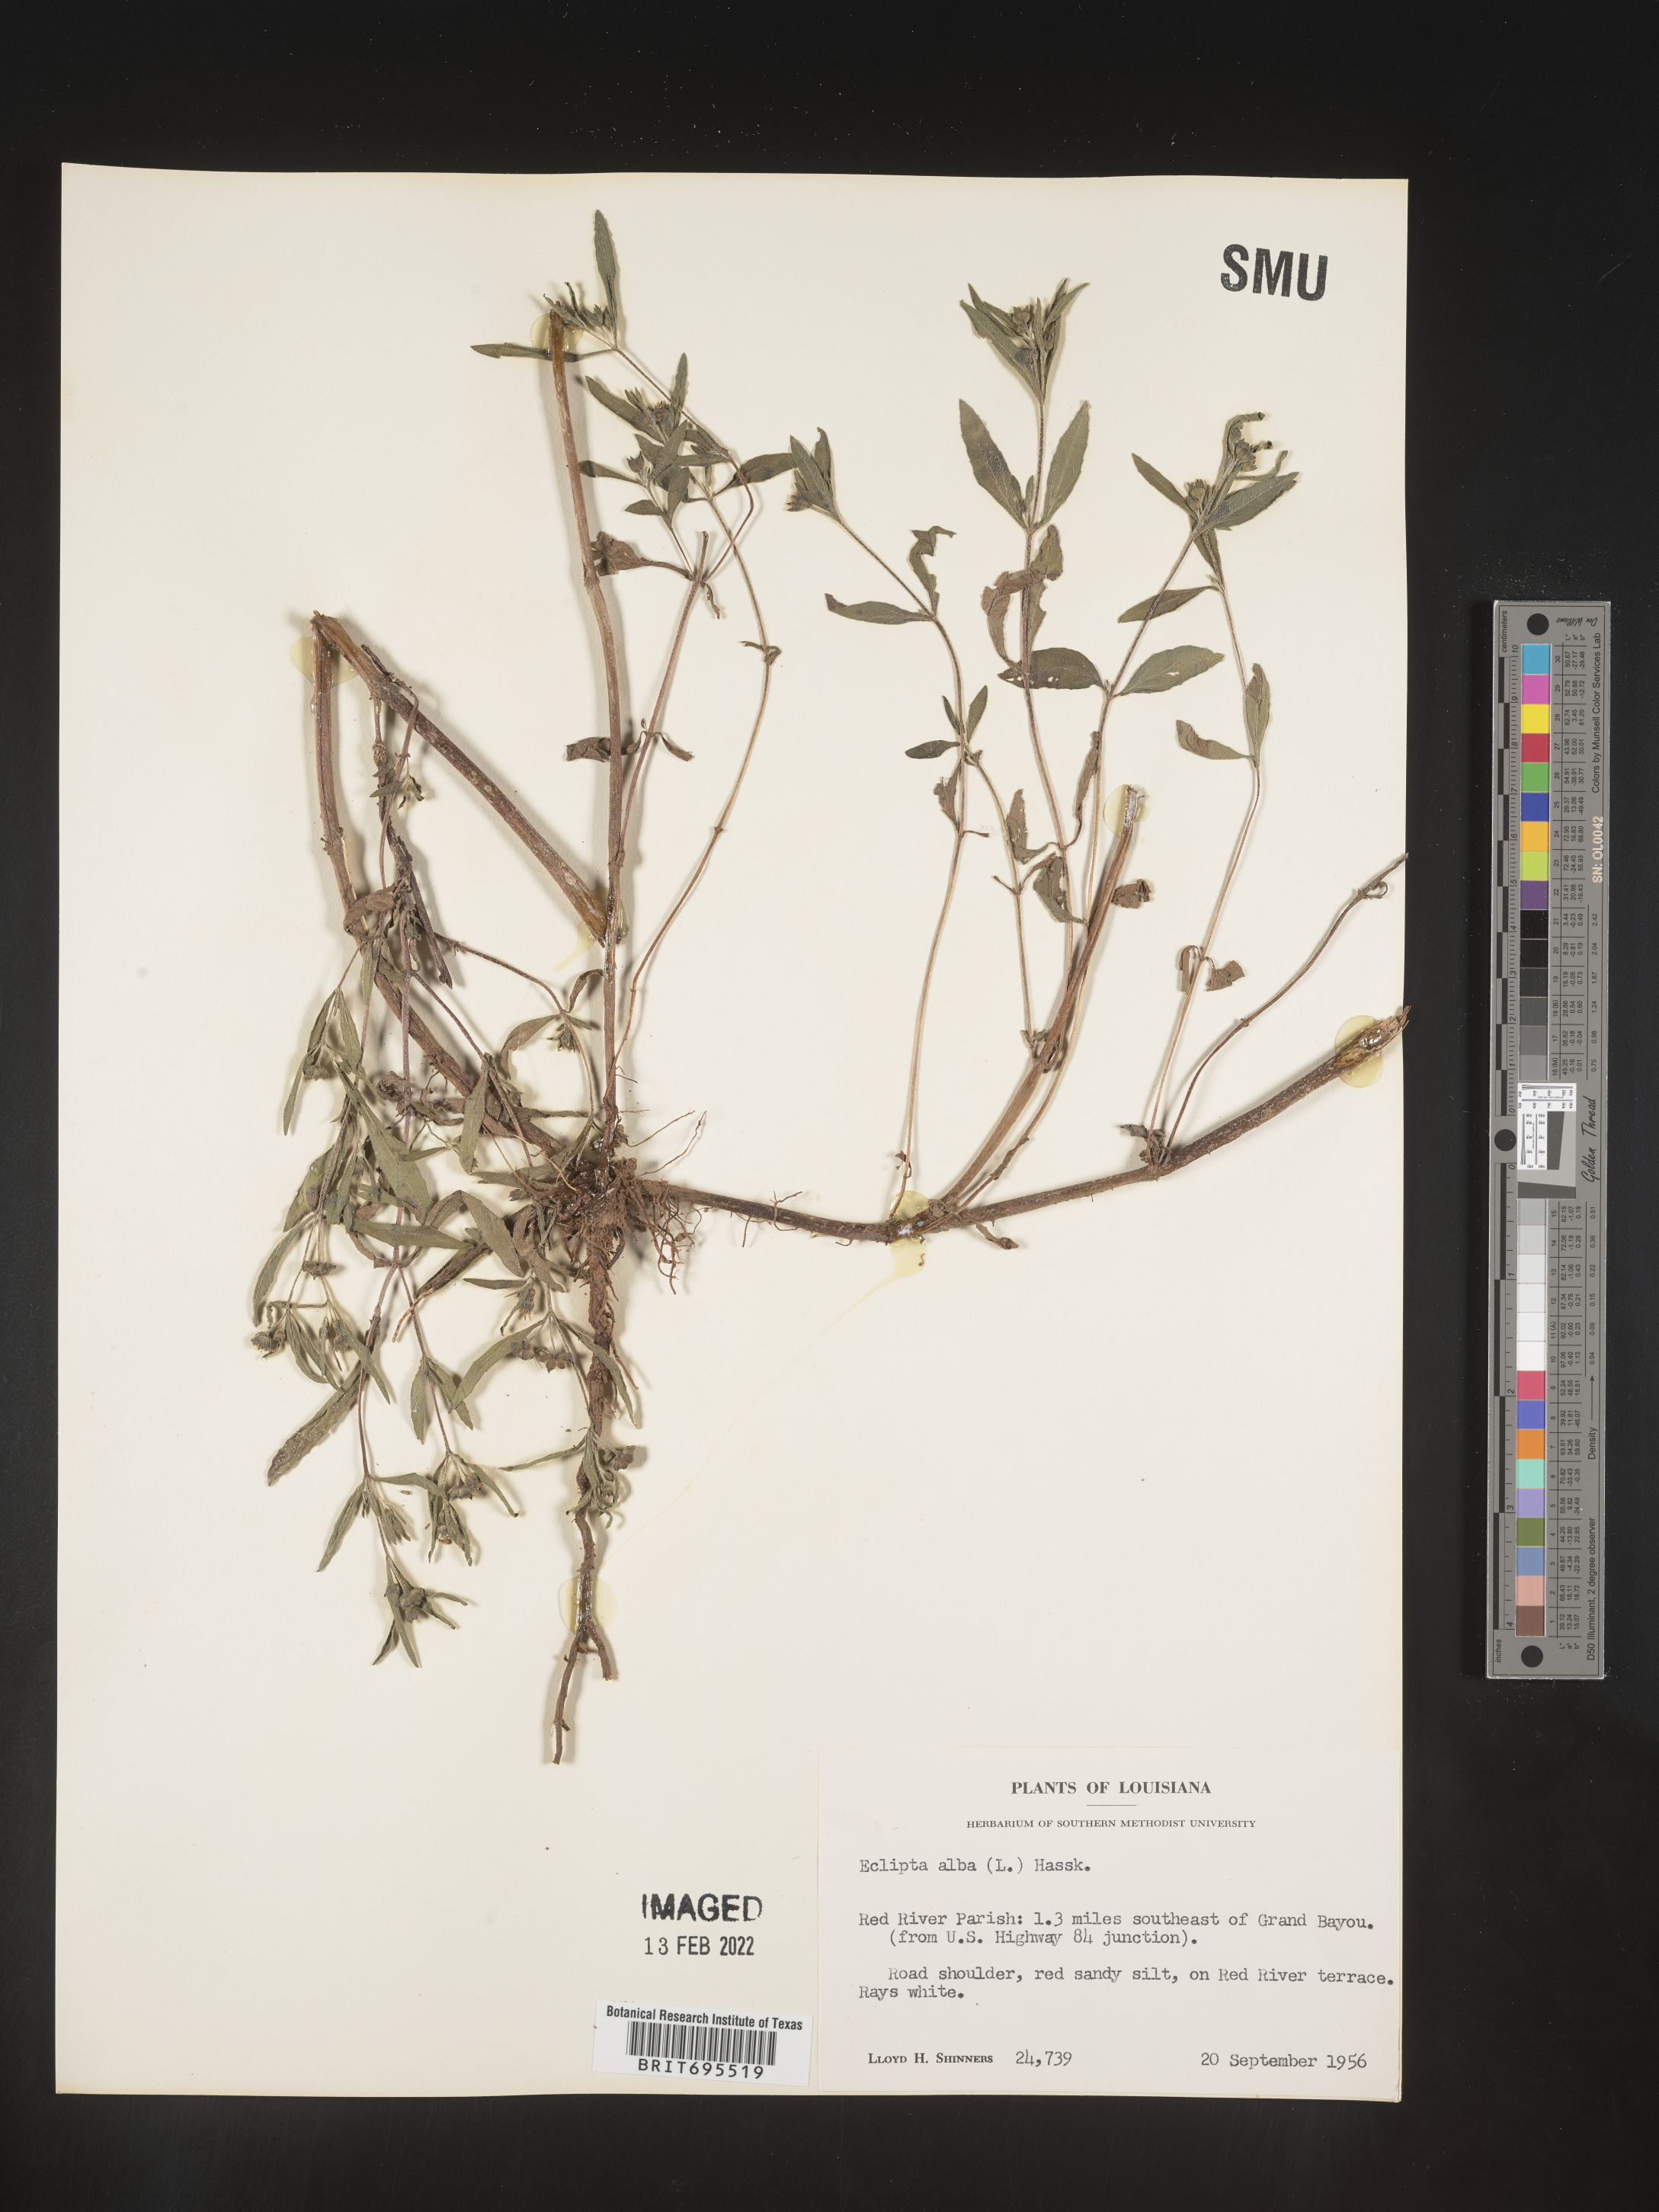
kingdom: Plantae
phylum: Tracheophyta
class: Magnoliopsida
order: Asterales
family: Asteraceae
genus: Eclipta
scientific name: Eclipta alba
